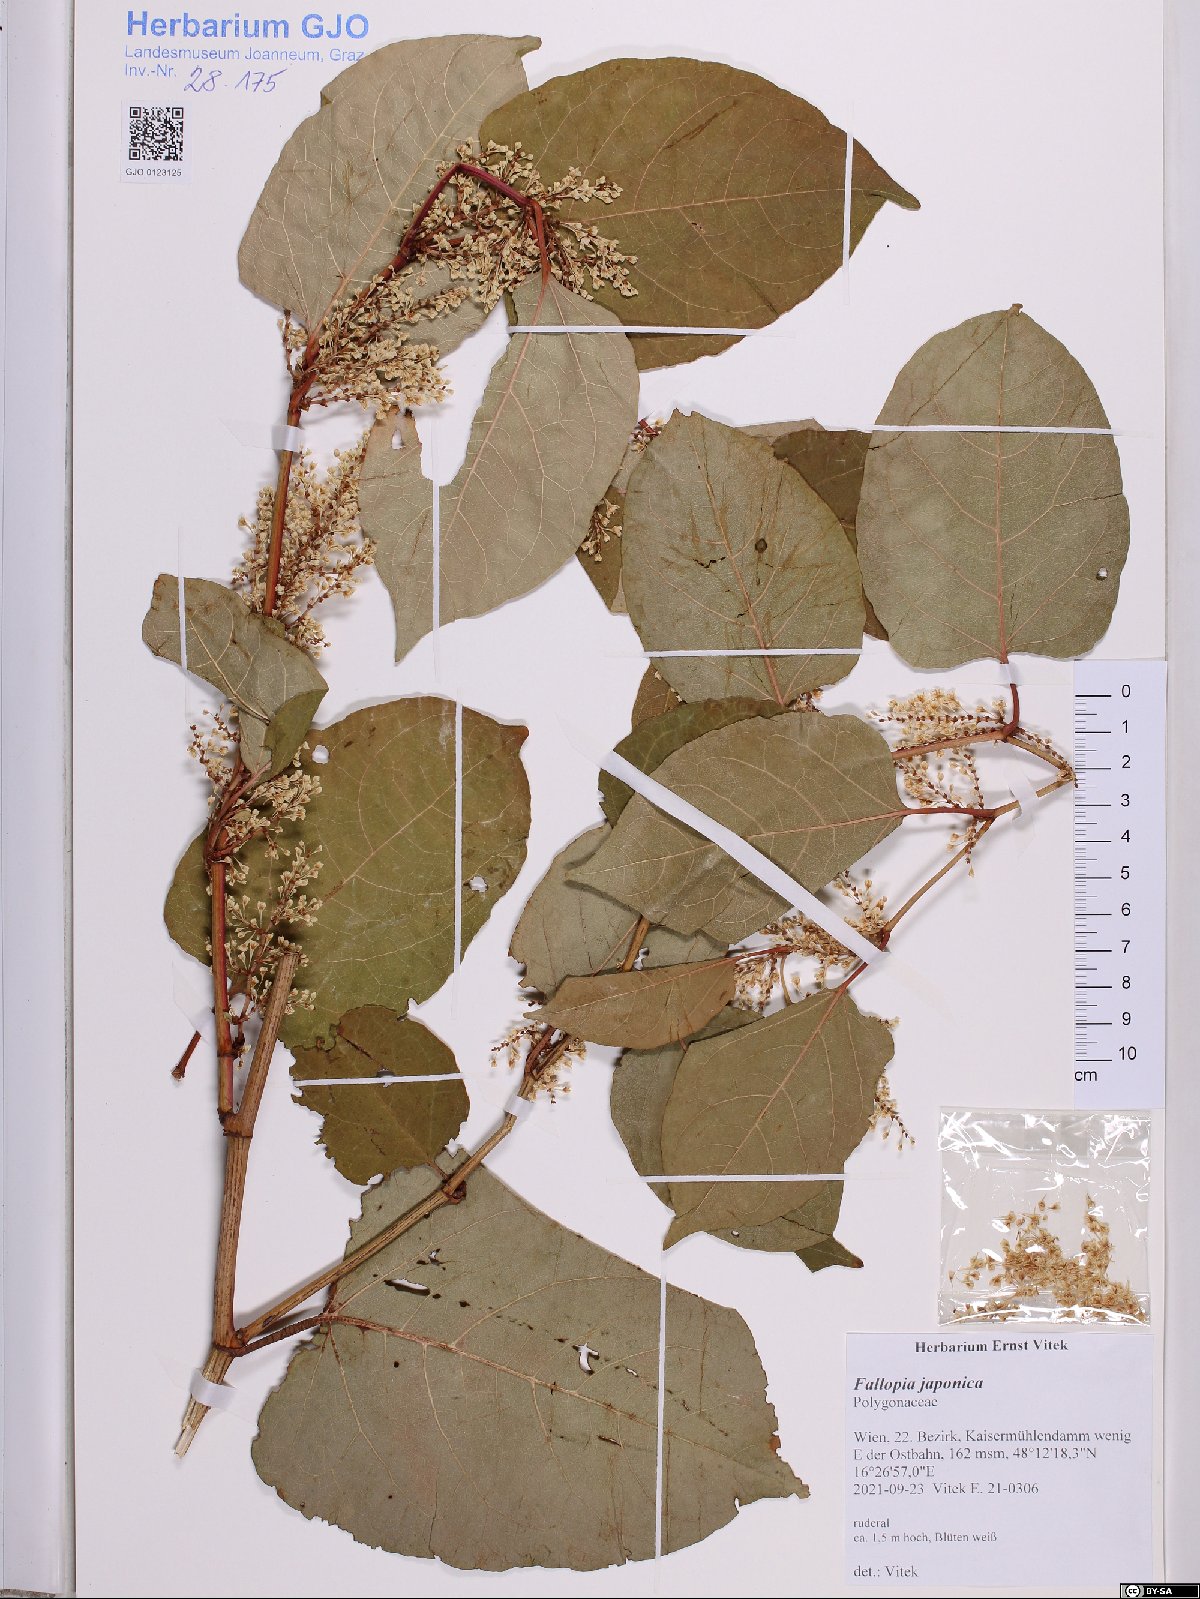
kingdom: Plantae
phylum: Tracheophyta
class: Magnoliopsida
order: Caryophyllales
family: Polygonaceae
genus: Reynoutria
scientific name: Reynoutria japonica
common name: Japanese knotweed
